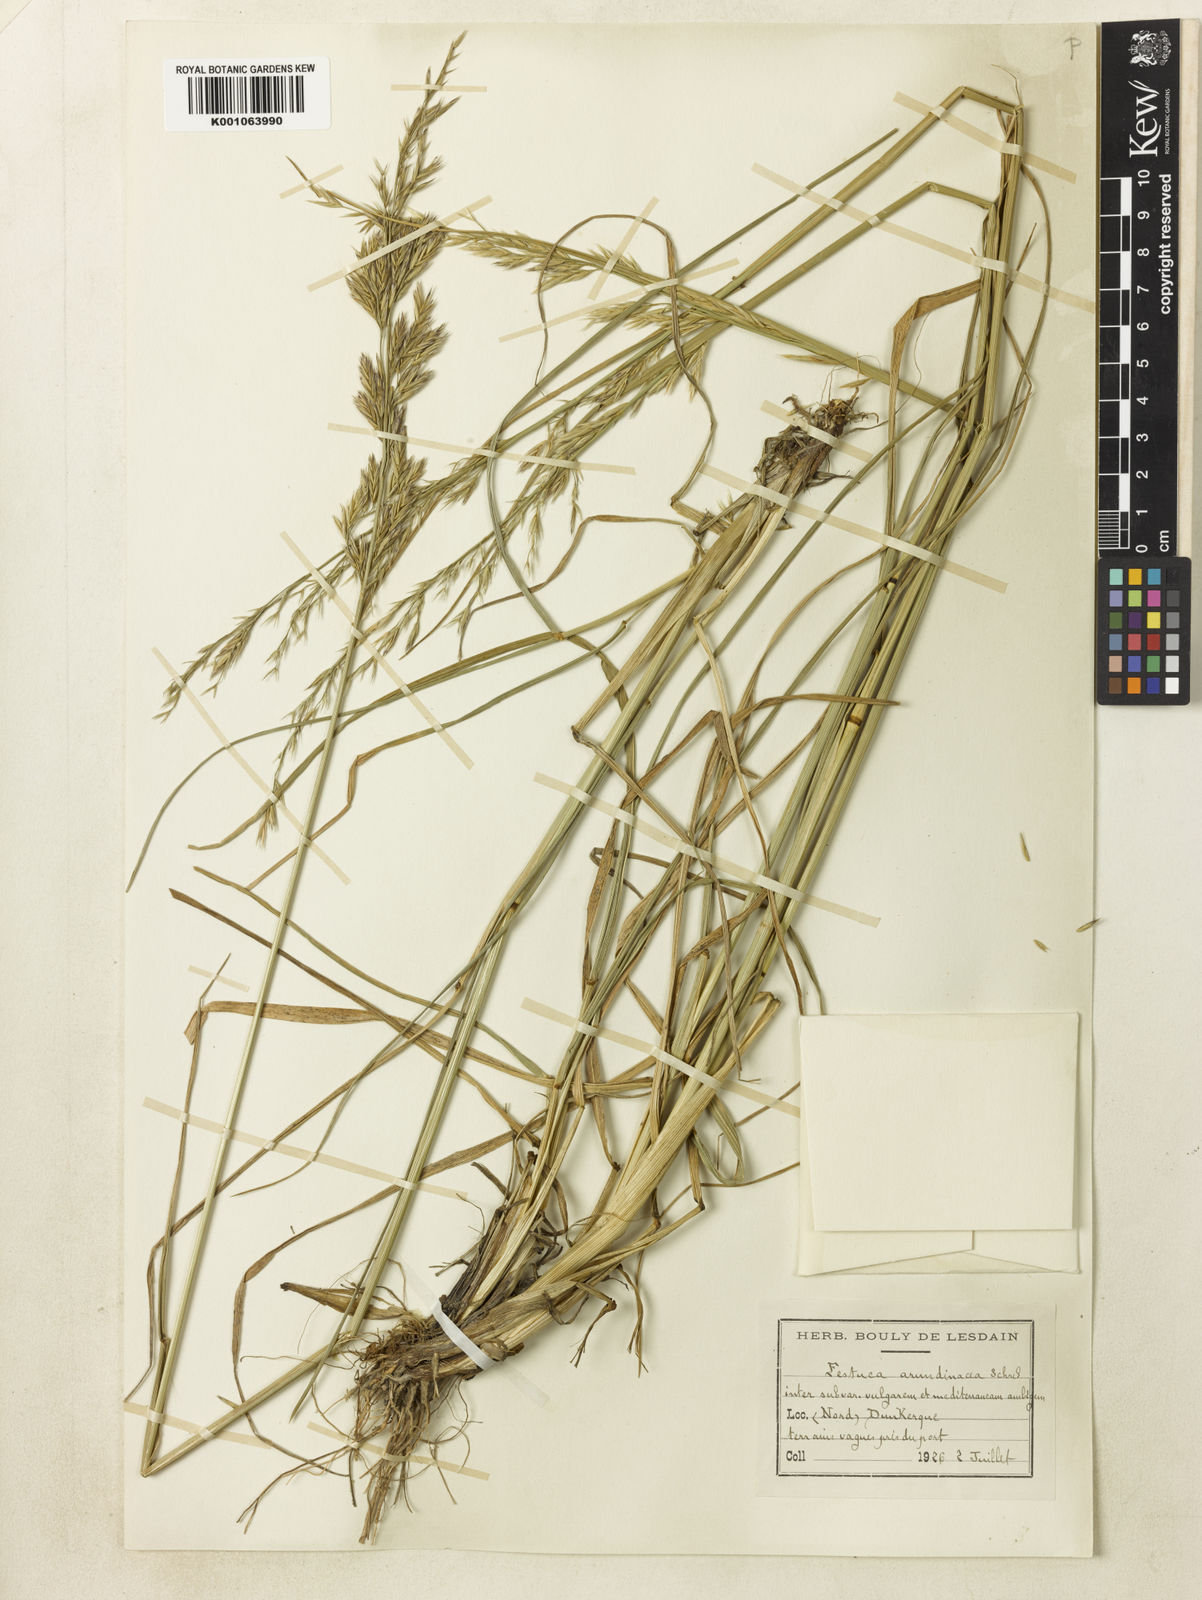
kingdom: Plantae
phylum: Tracheophyta
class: Liliopsida
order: Poales
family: Poaceae
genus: Lolium
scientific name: Lolium arundinaceum
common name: Reed fescue
